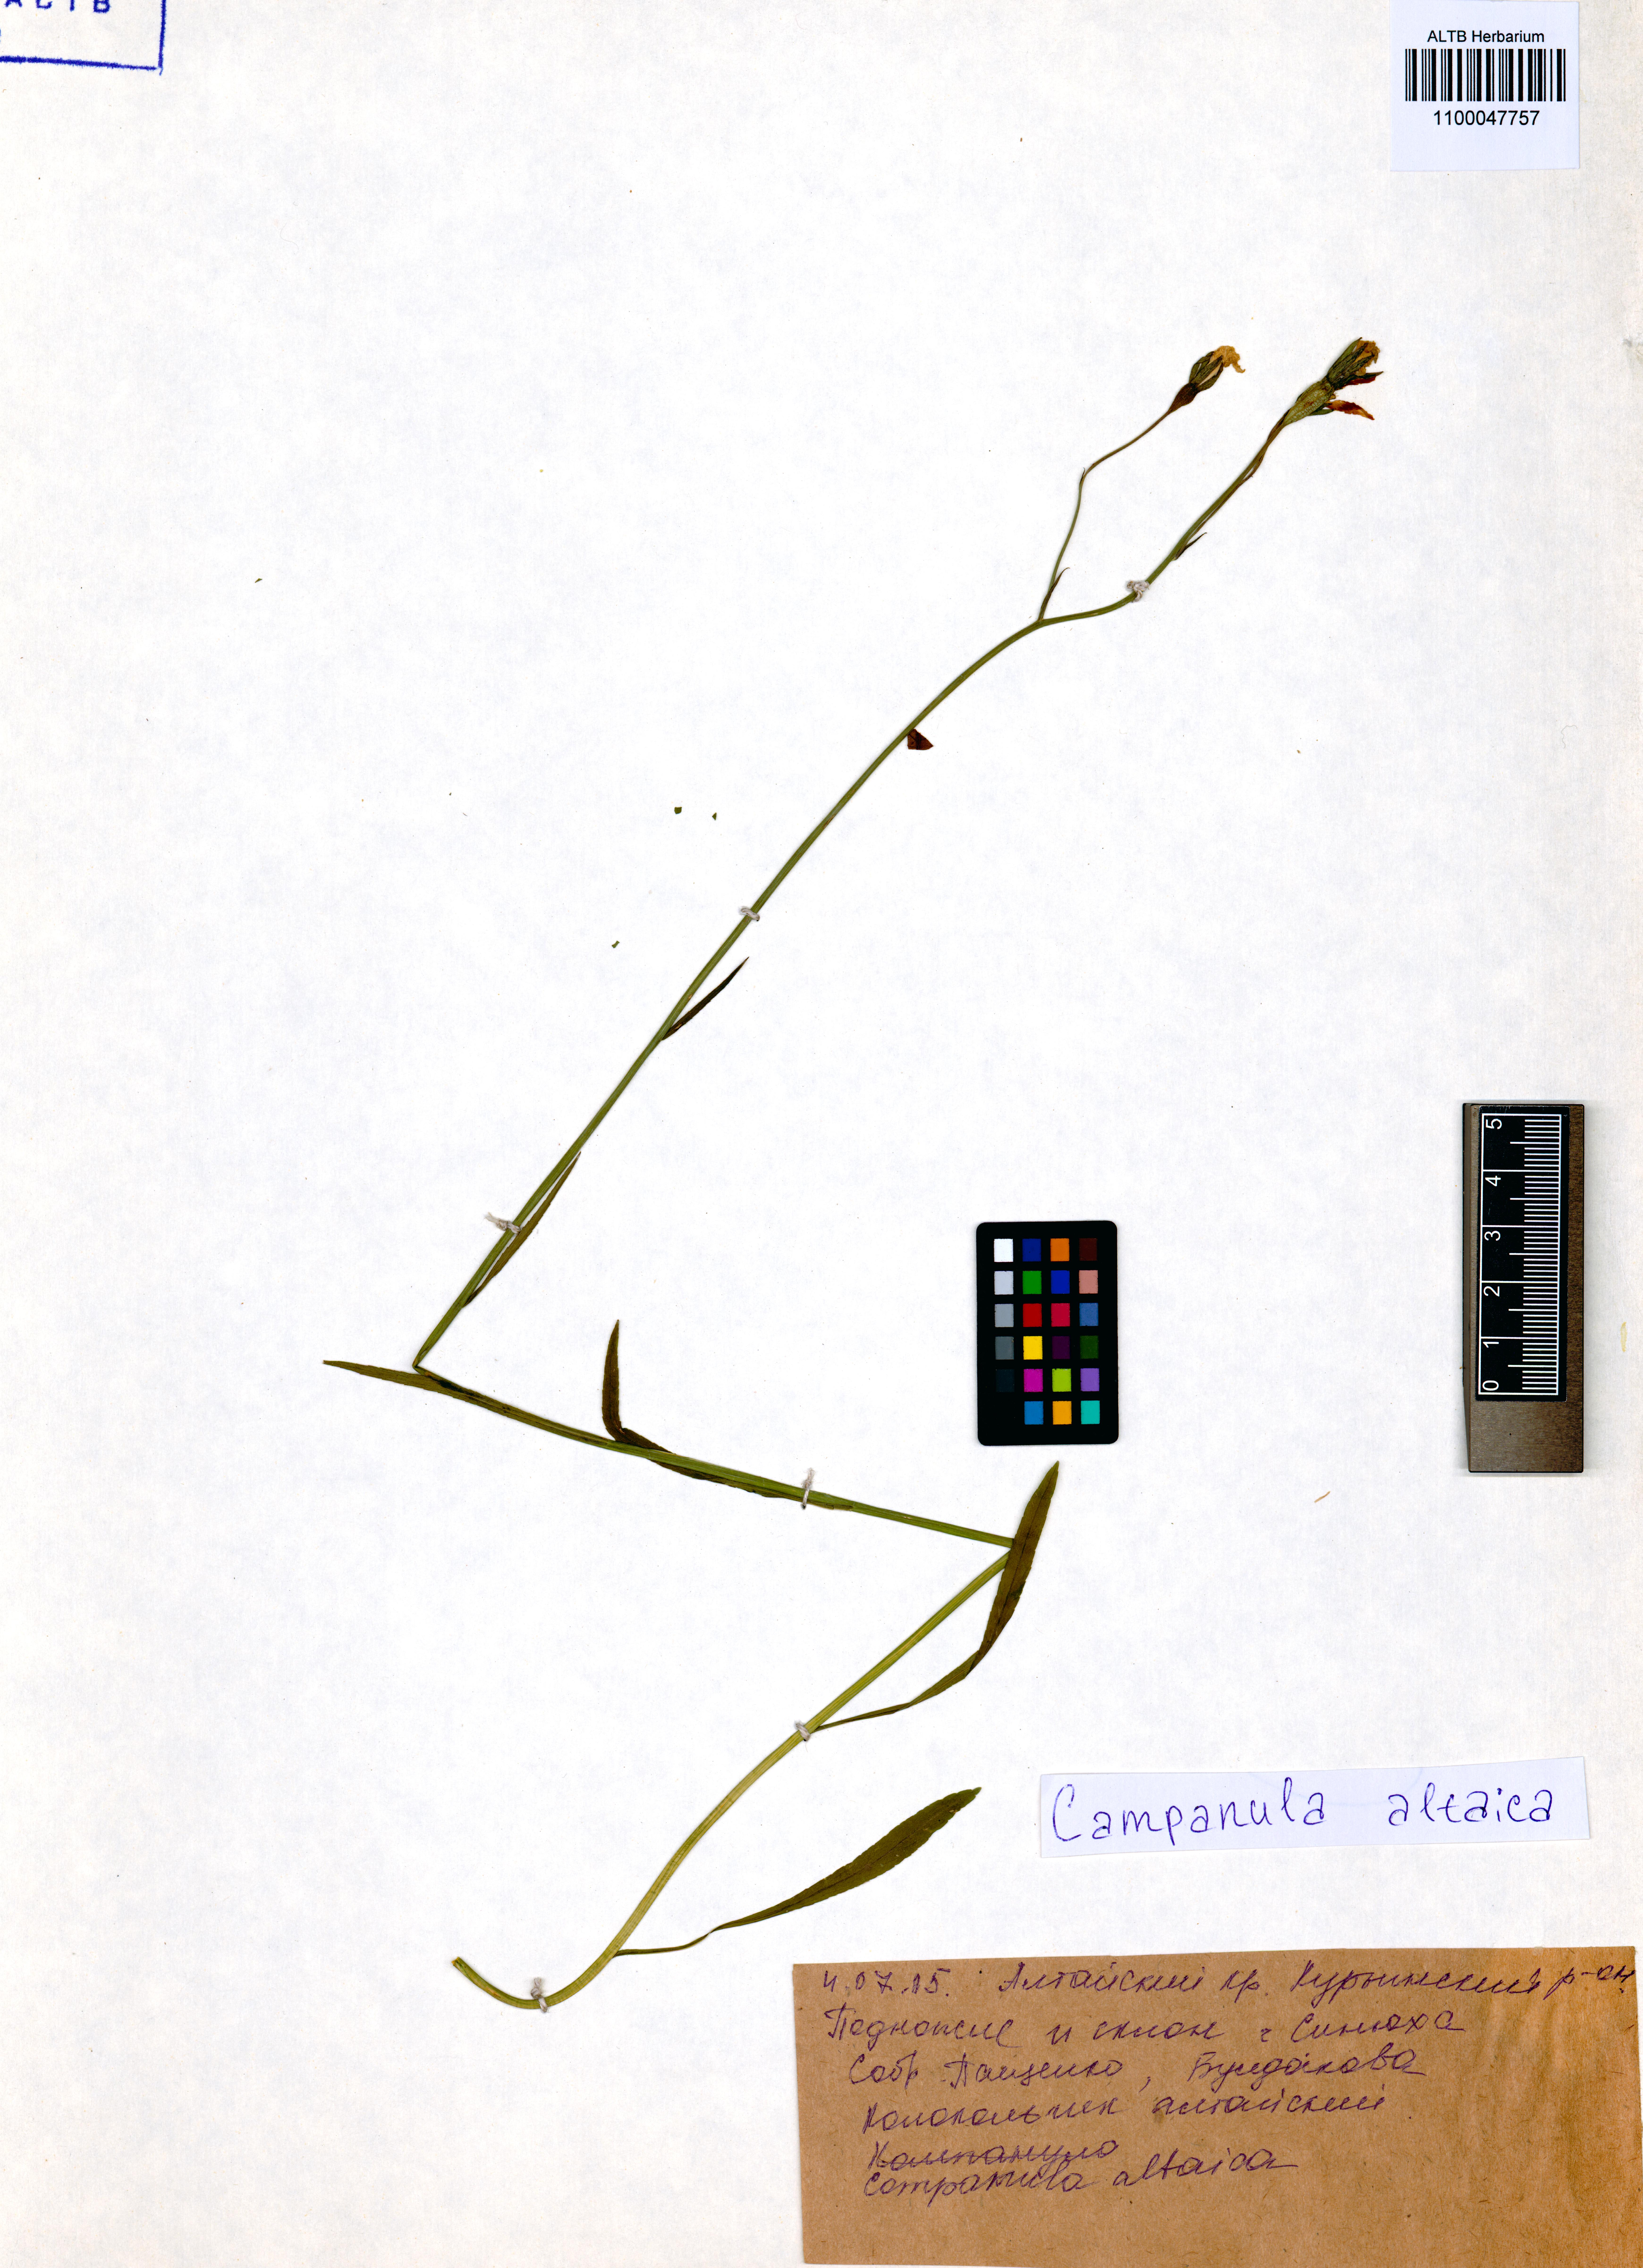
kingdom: Plantae
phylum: Tracheophyta
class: Magnoliopsida
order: Asterales
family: Campanulaceae
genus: Campanula
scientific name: Campanula stevenii
